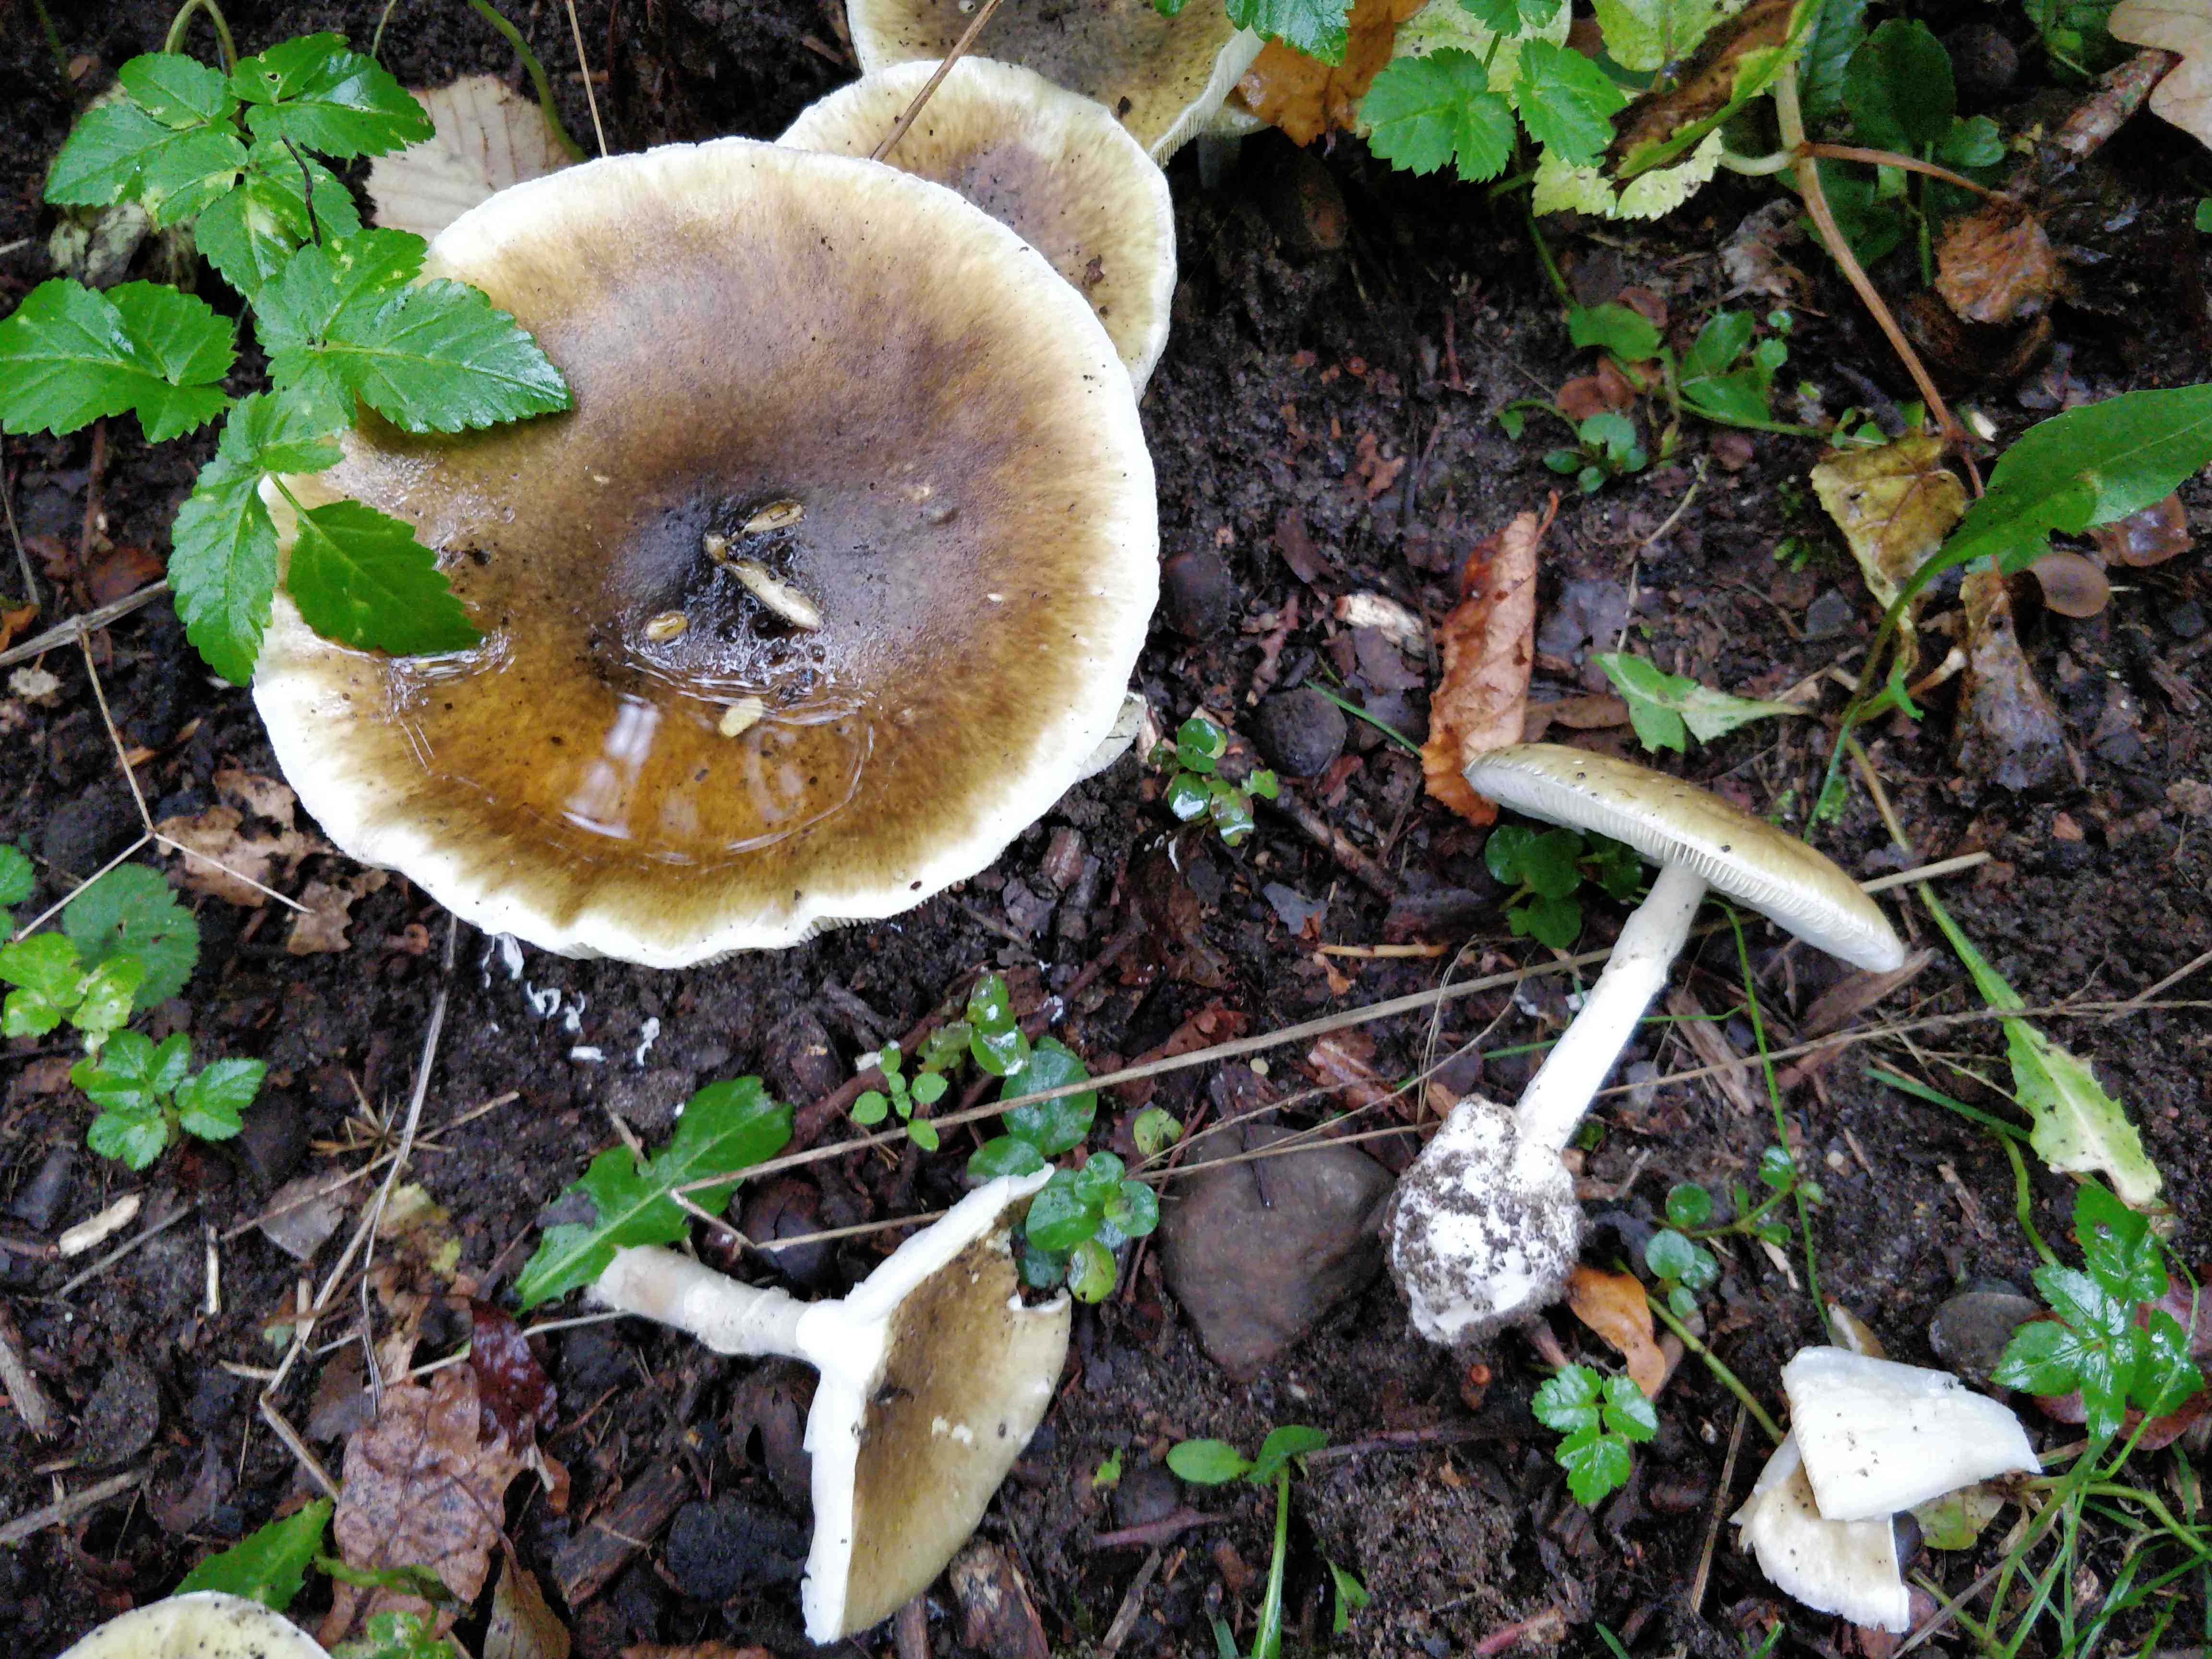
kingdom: Fungi
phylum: Basidiomycota
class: Agaricomycetes
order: Agaricales
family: Amanitaceae
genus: Amanita
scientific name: Amanita phalloides
